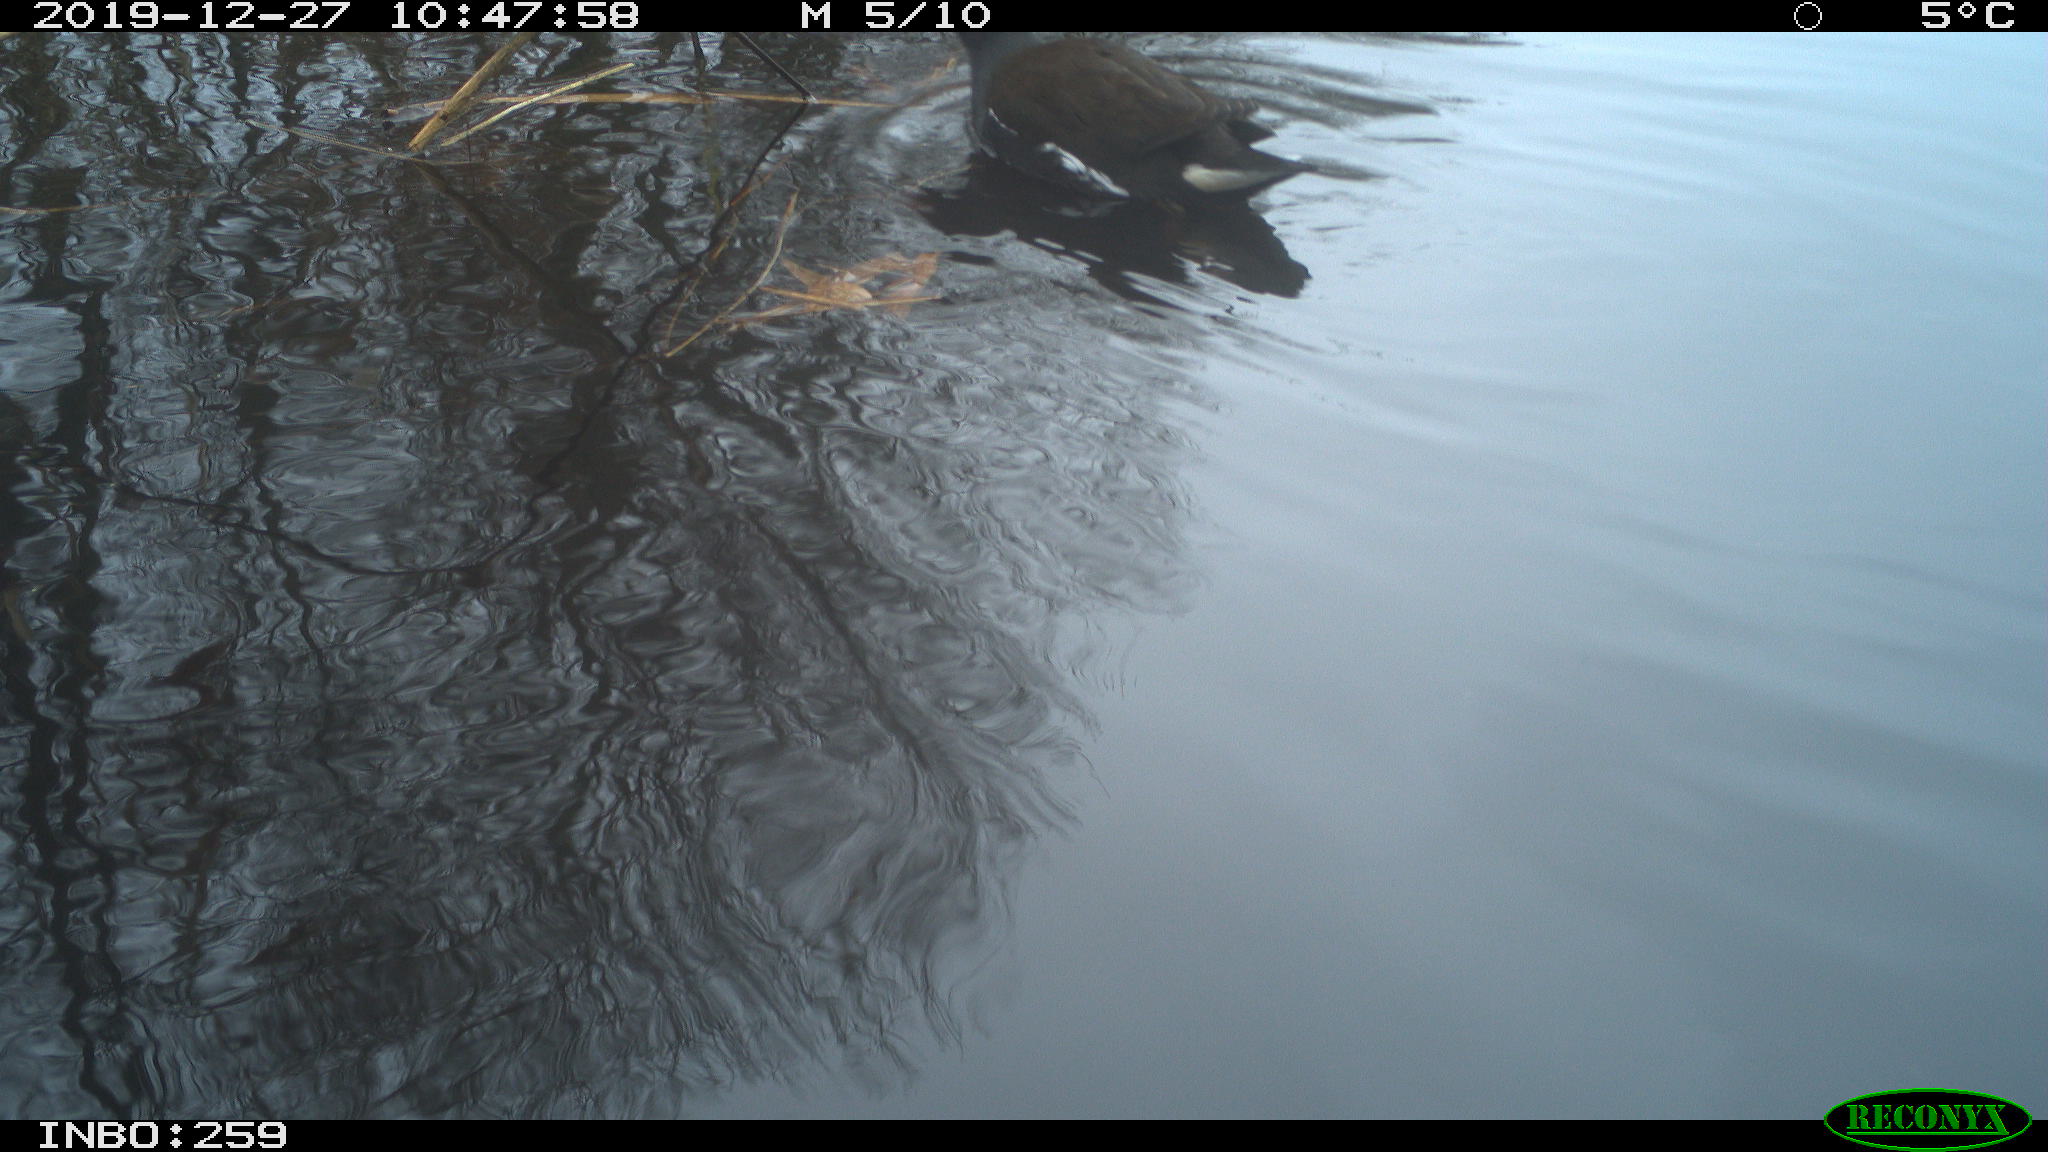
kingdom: Animalia
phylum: Chordata
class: Aves
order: Gruiformes
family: Rallidae
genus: Gallinula
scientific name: Gallinula chloropus
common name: Common moorhen
